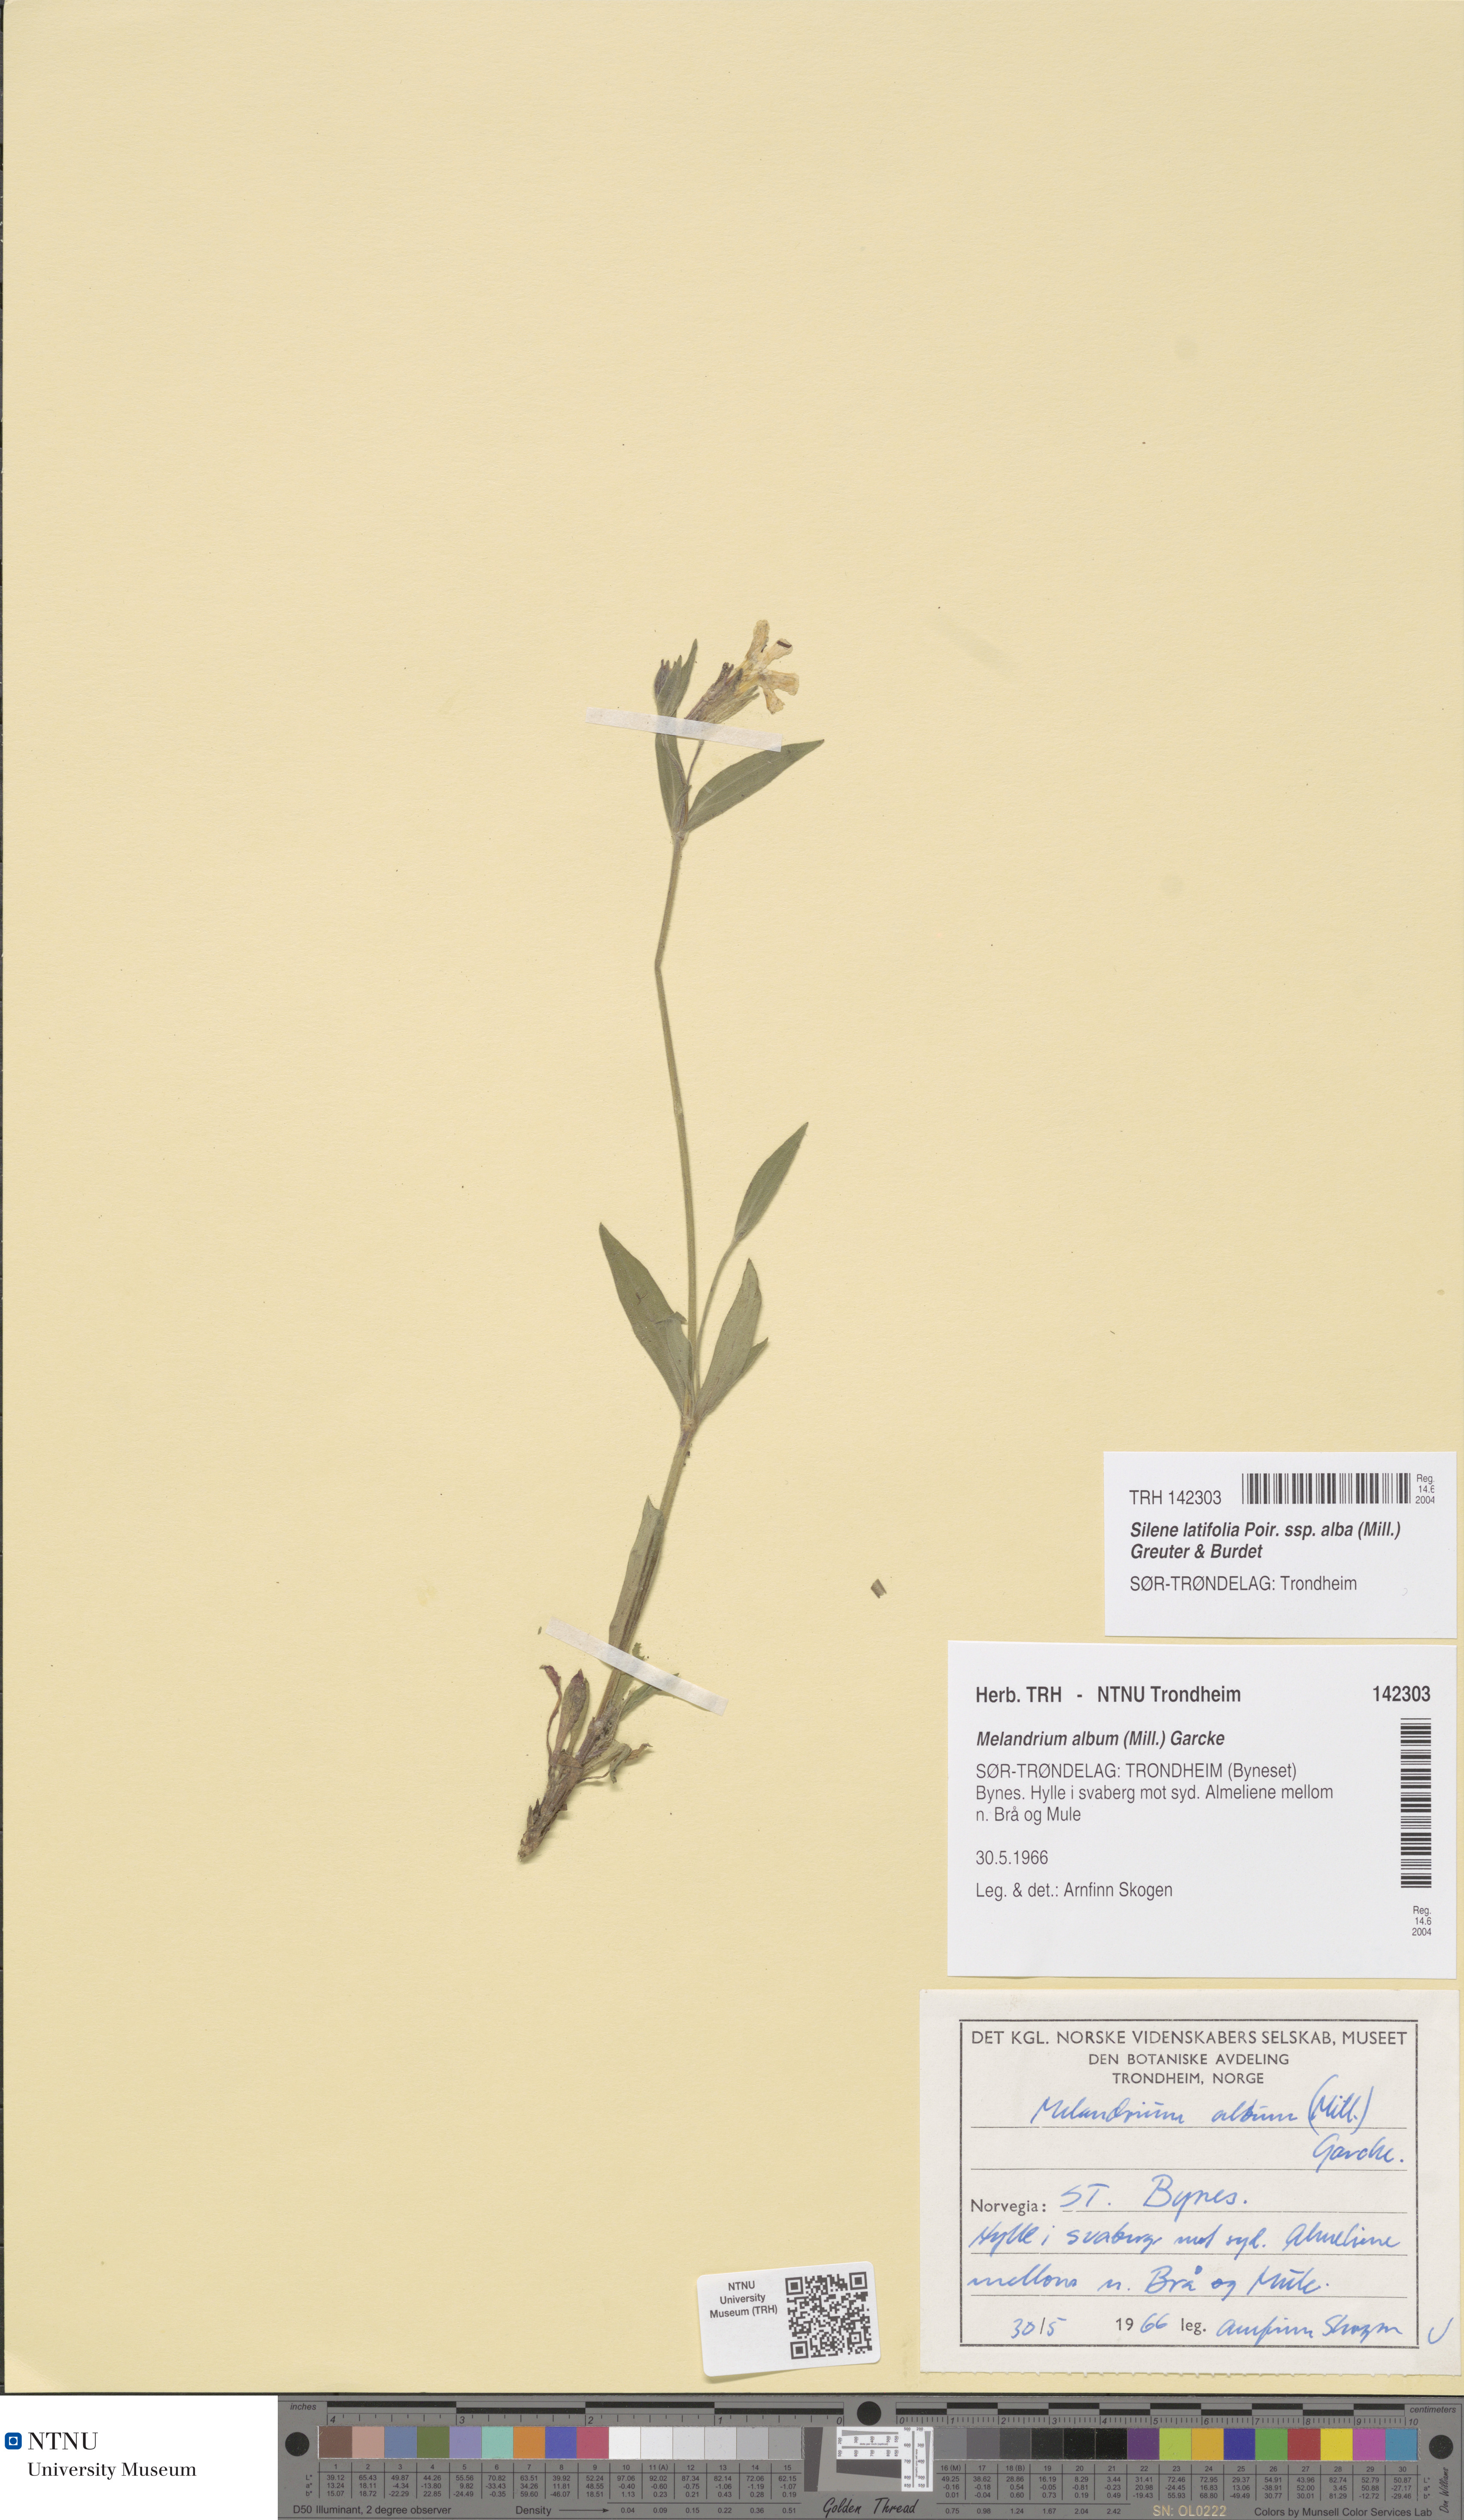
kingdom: Plantae
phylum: Tracheophyta
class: Magnoliopsida
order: Caryophyllales
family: Caryophyllaceae
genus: Silene
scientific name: Silene latifolia
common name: White campion
